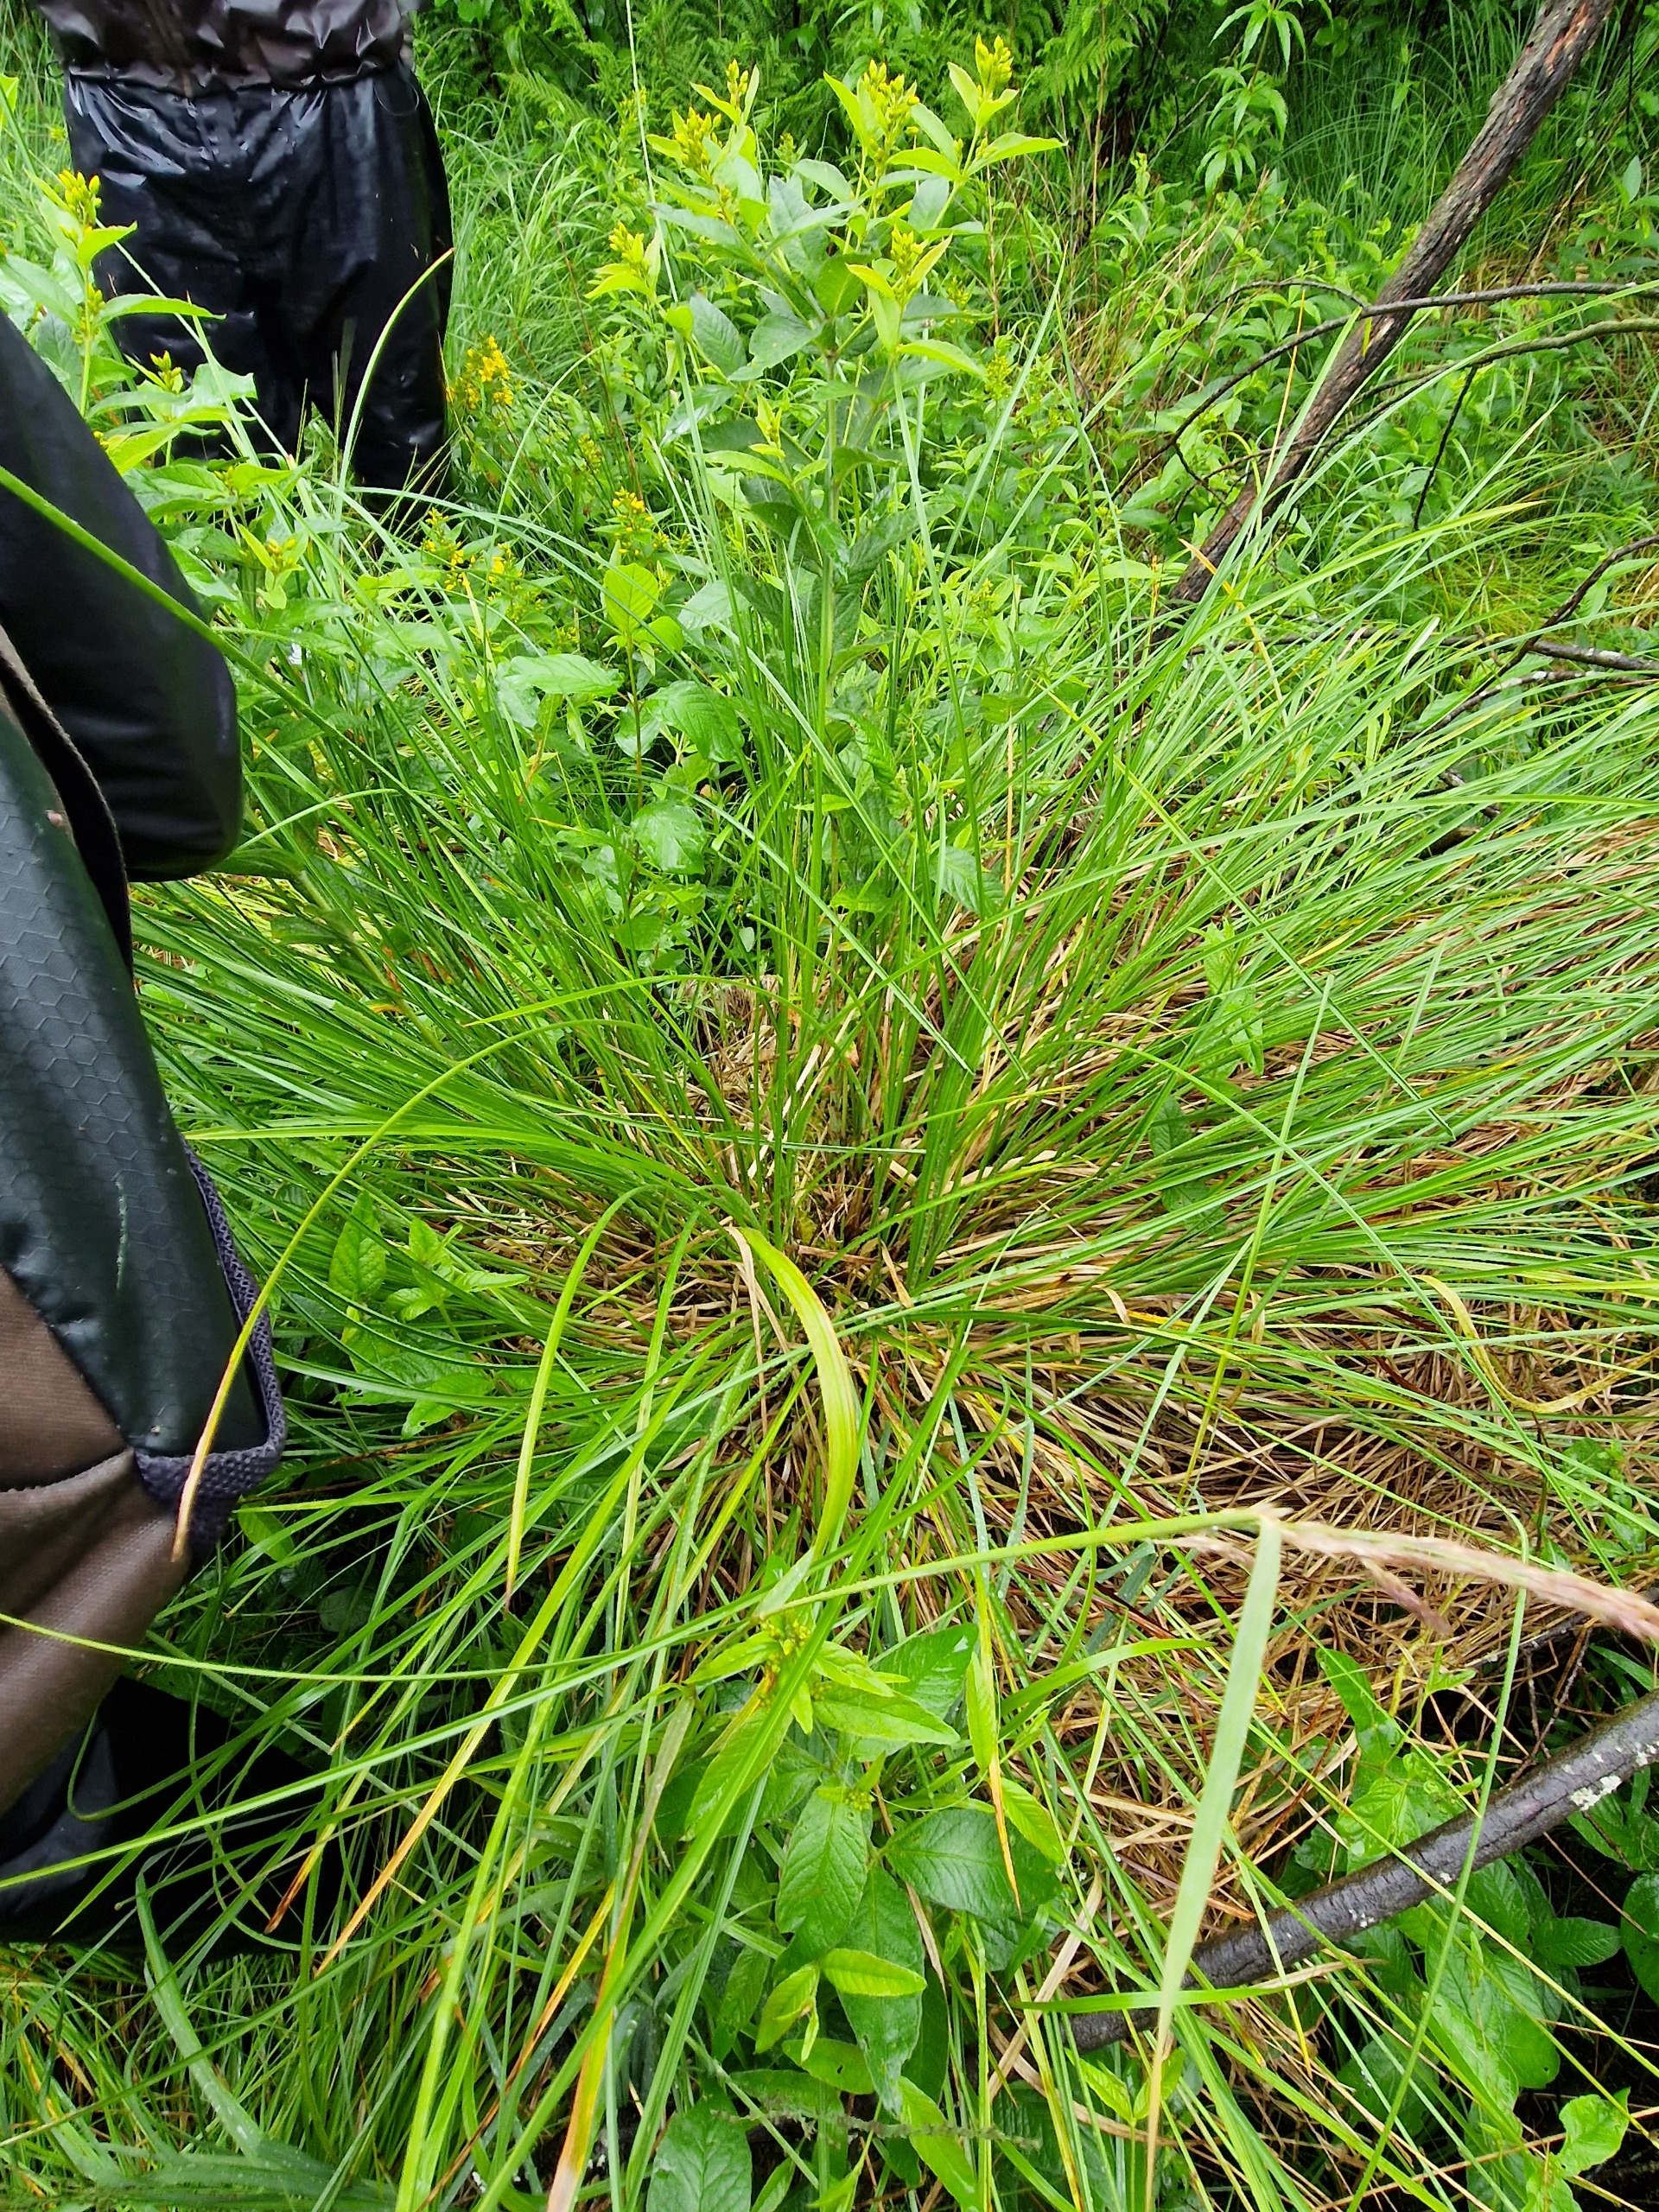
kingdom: Plantae
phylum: Tracheophyta
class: Liliopsida
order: Poales
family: Cyperaceae
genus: Carex
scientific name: Carex paniculata
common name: Top-star
